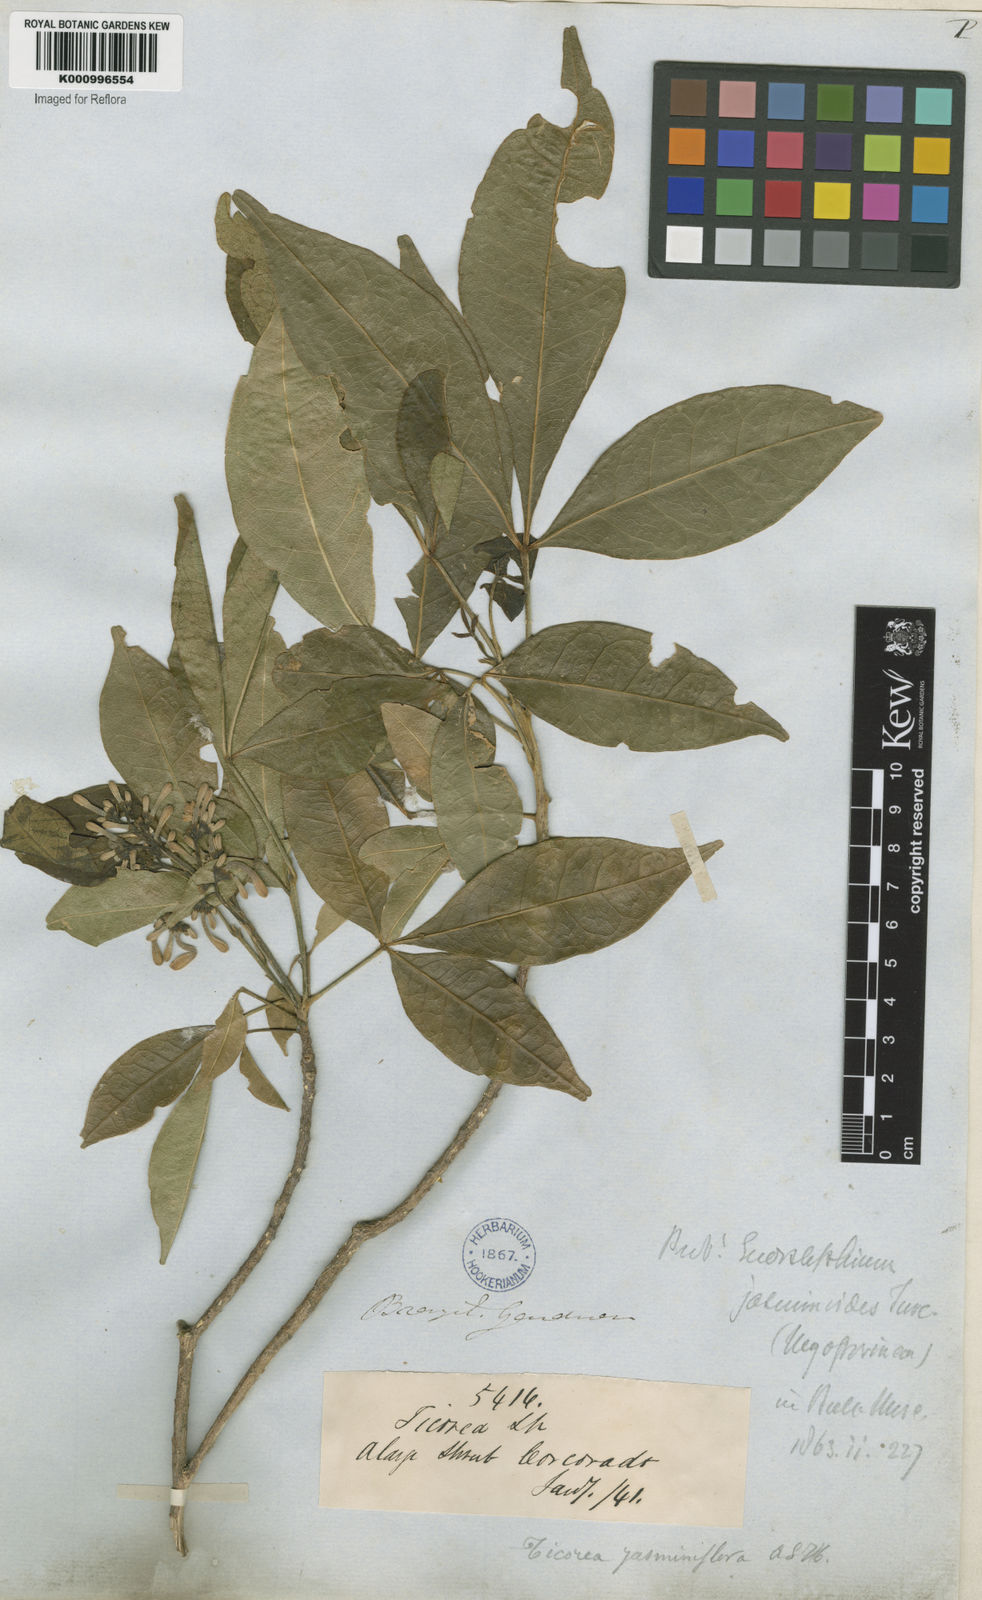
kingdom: Plantae
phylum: Tracheophyta
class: Magnoliopsida
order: Sapindales
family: Rutaceae
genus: Galipea
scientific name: Galipea
